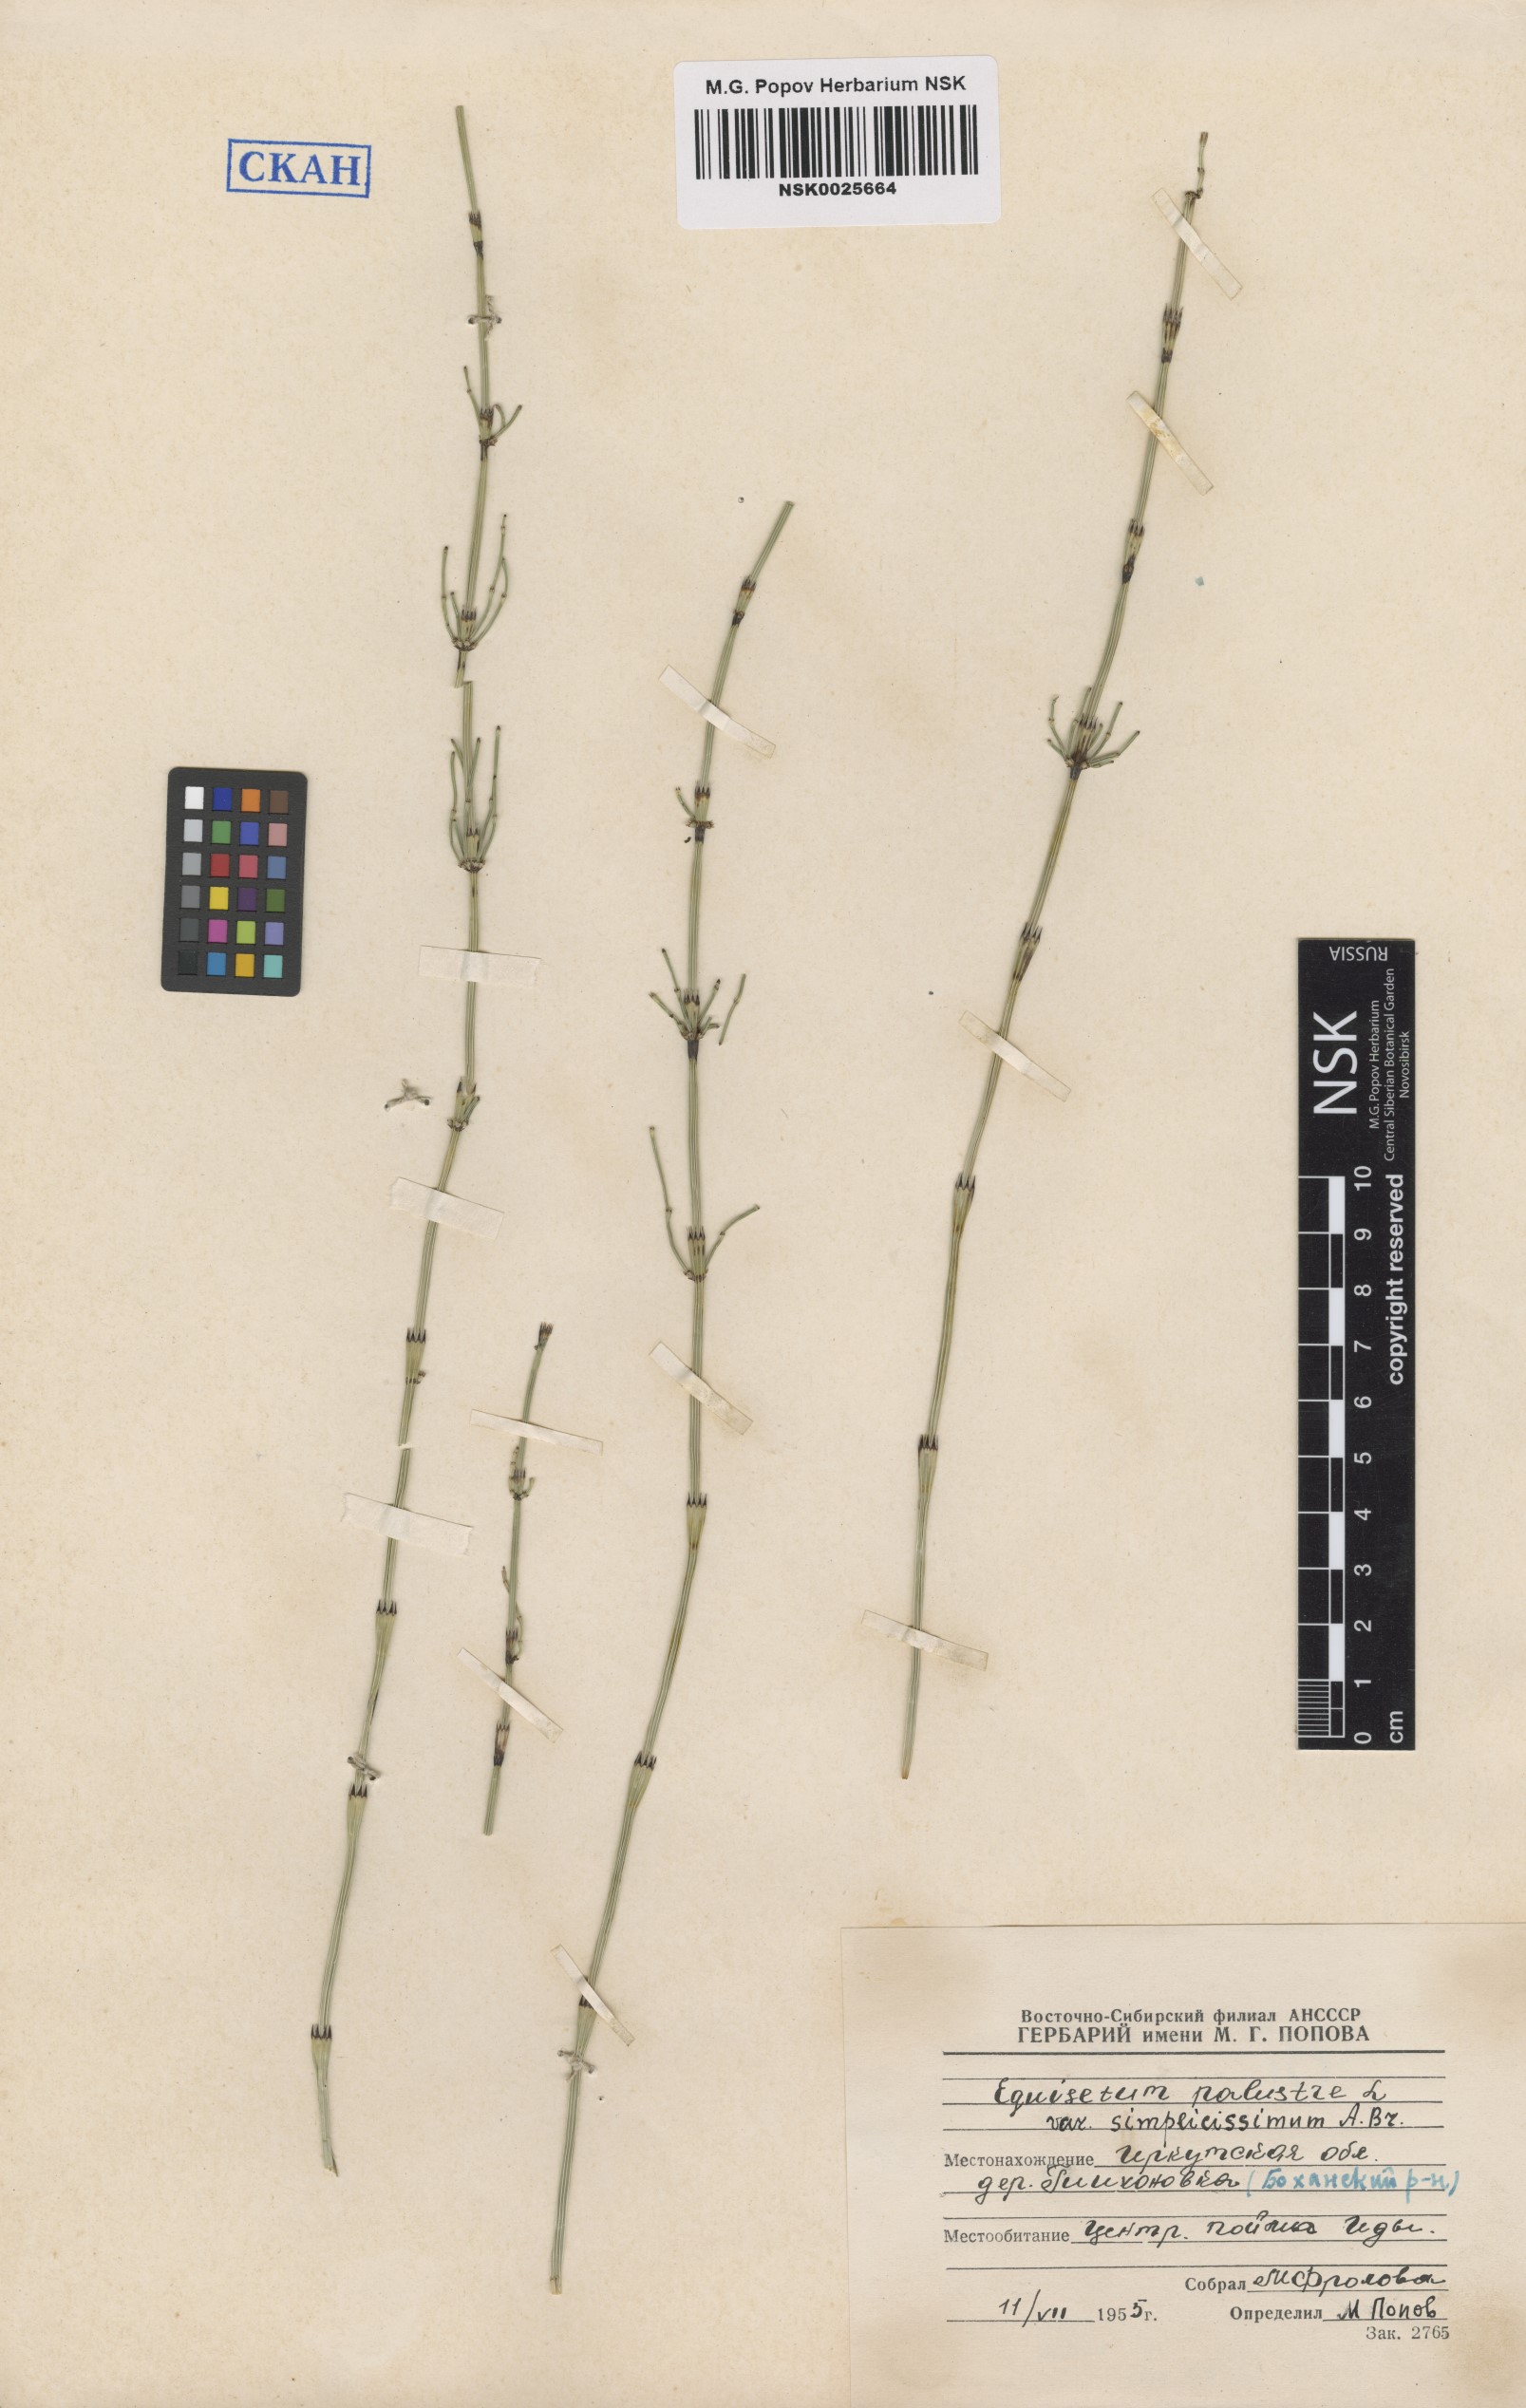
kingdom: Plantae
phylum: Tracheophyta
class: Polypodiopsida
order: Equisetales
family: Equisetaceae
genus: Equisetum
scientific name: Equisetum palustre
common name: Marsh horsetail
